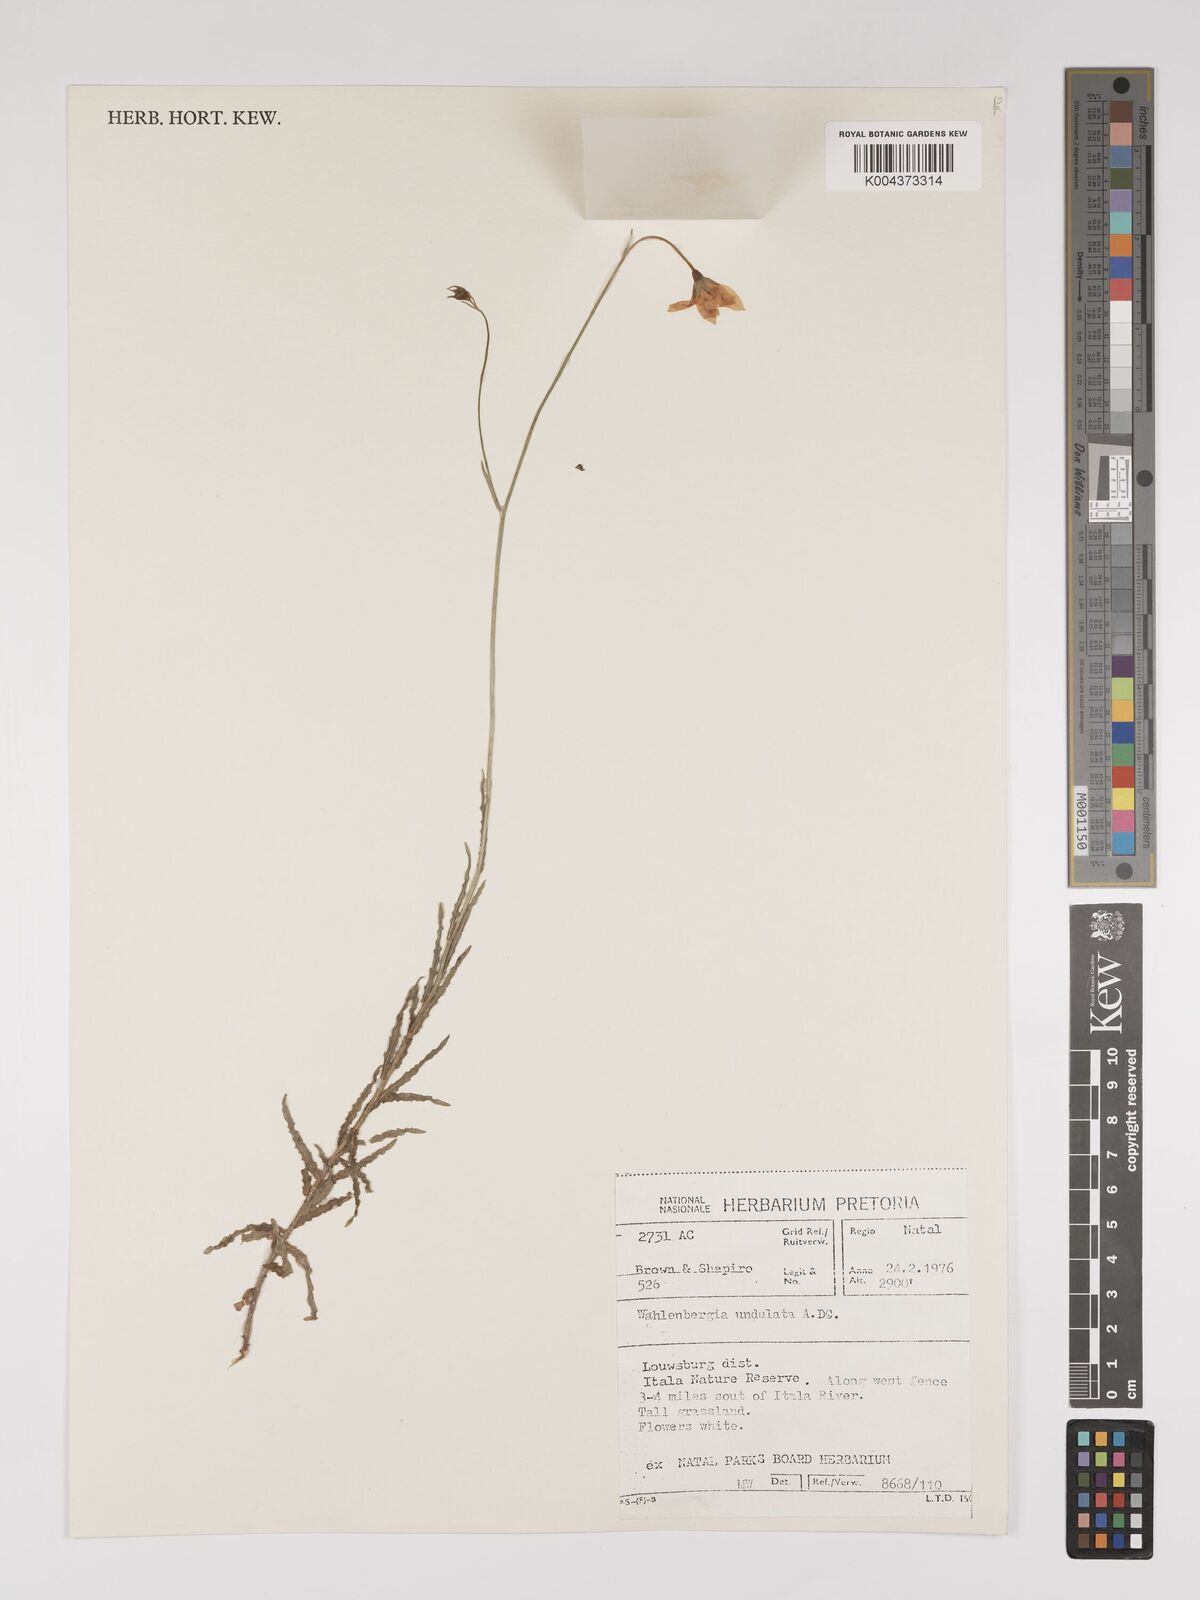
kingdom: Plantae
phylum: Tracheophyta
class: Magnoliopsida
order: Asterales
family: Campanulaceae
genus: Wahlenbergia
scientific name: Wahlenbergia undulata
